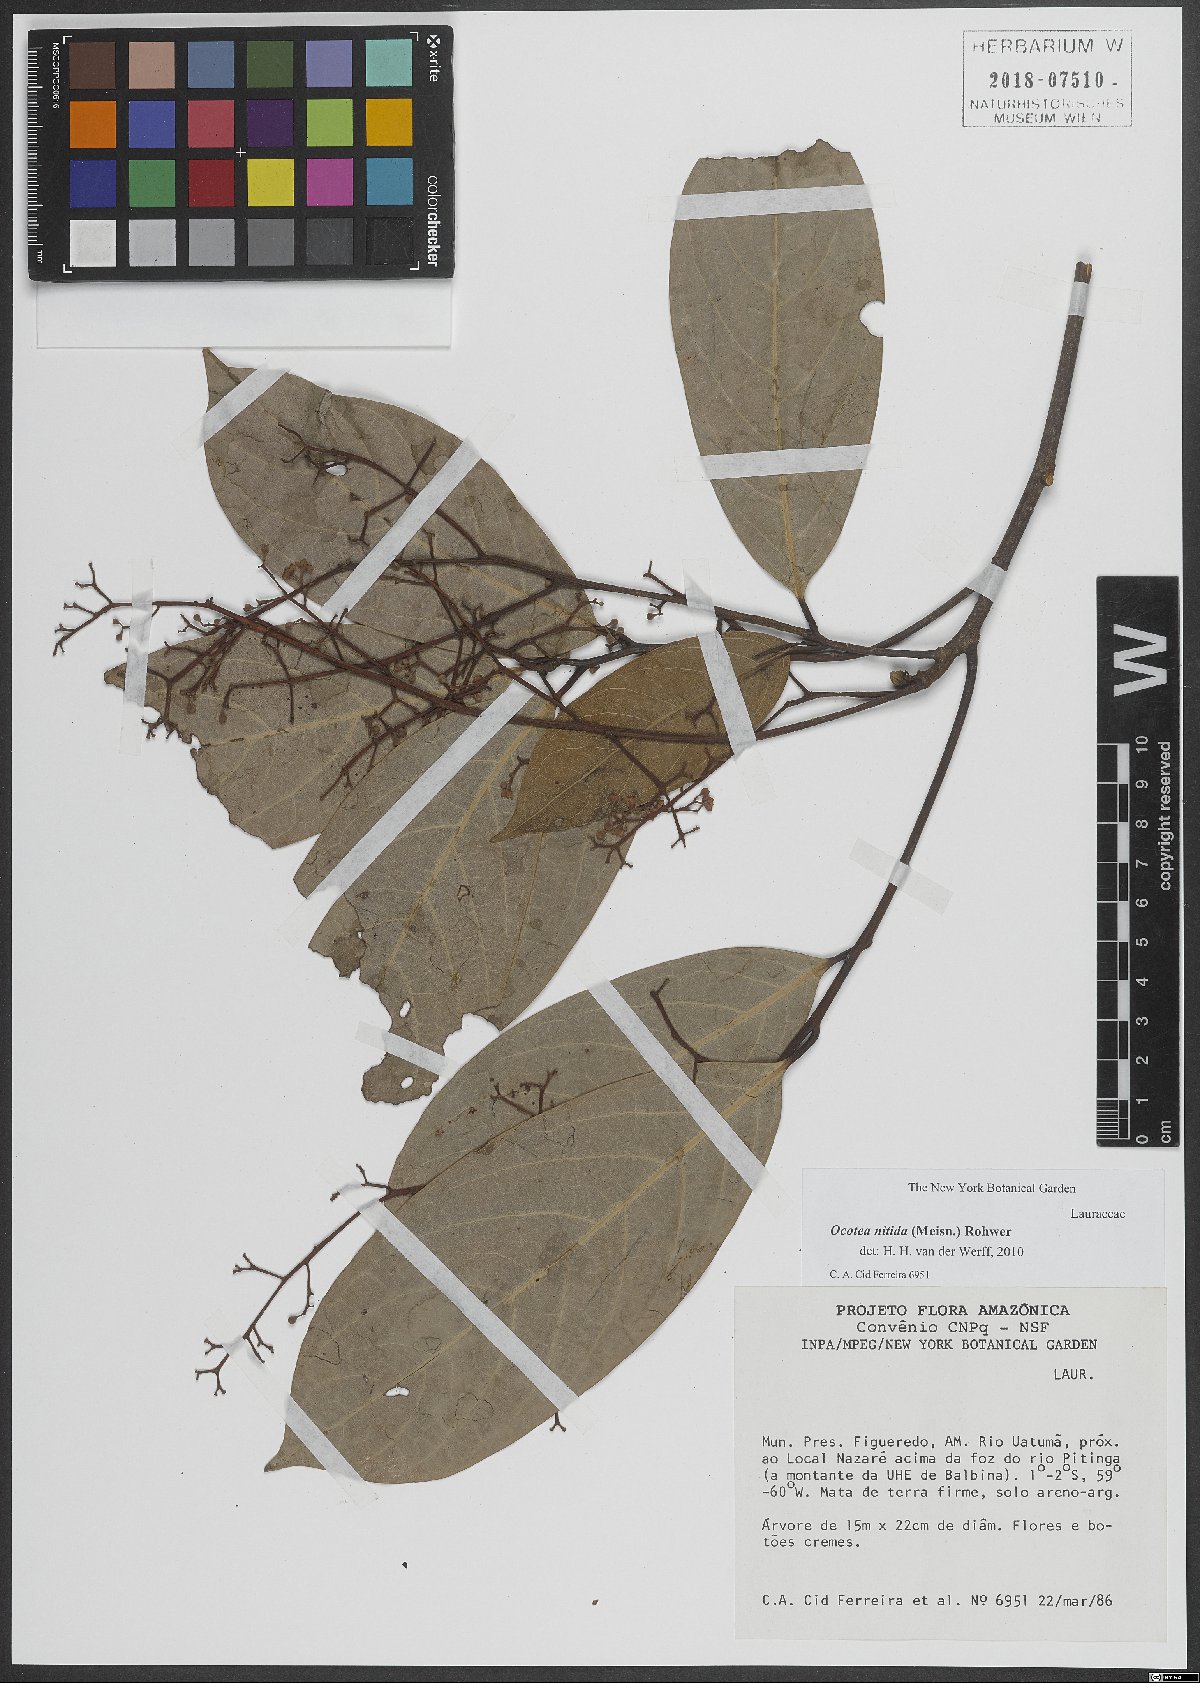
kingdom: Plantae
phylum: Tracheophyta
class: Magnoliopsida
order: Laurales
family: Lauraceae
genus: Ocotea
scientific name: Ocotea nitida
